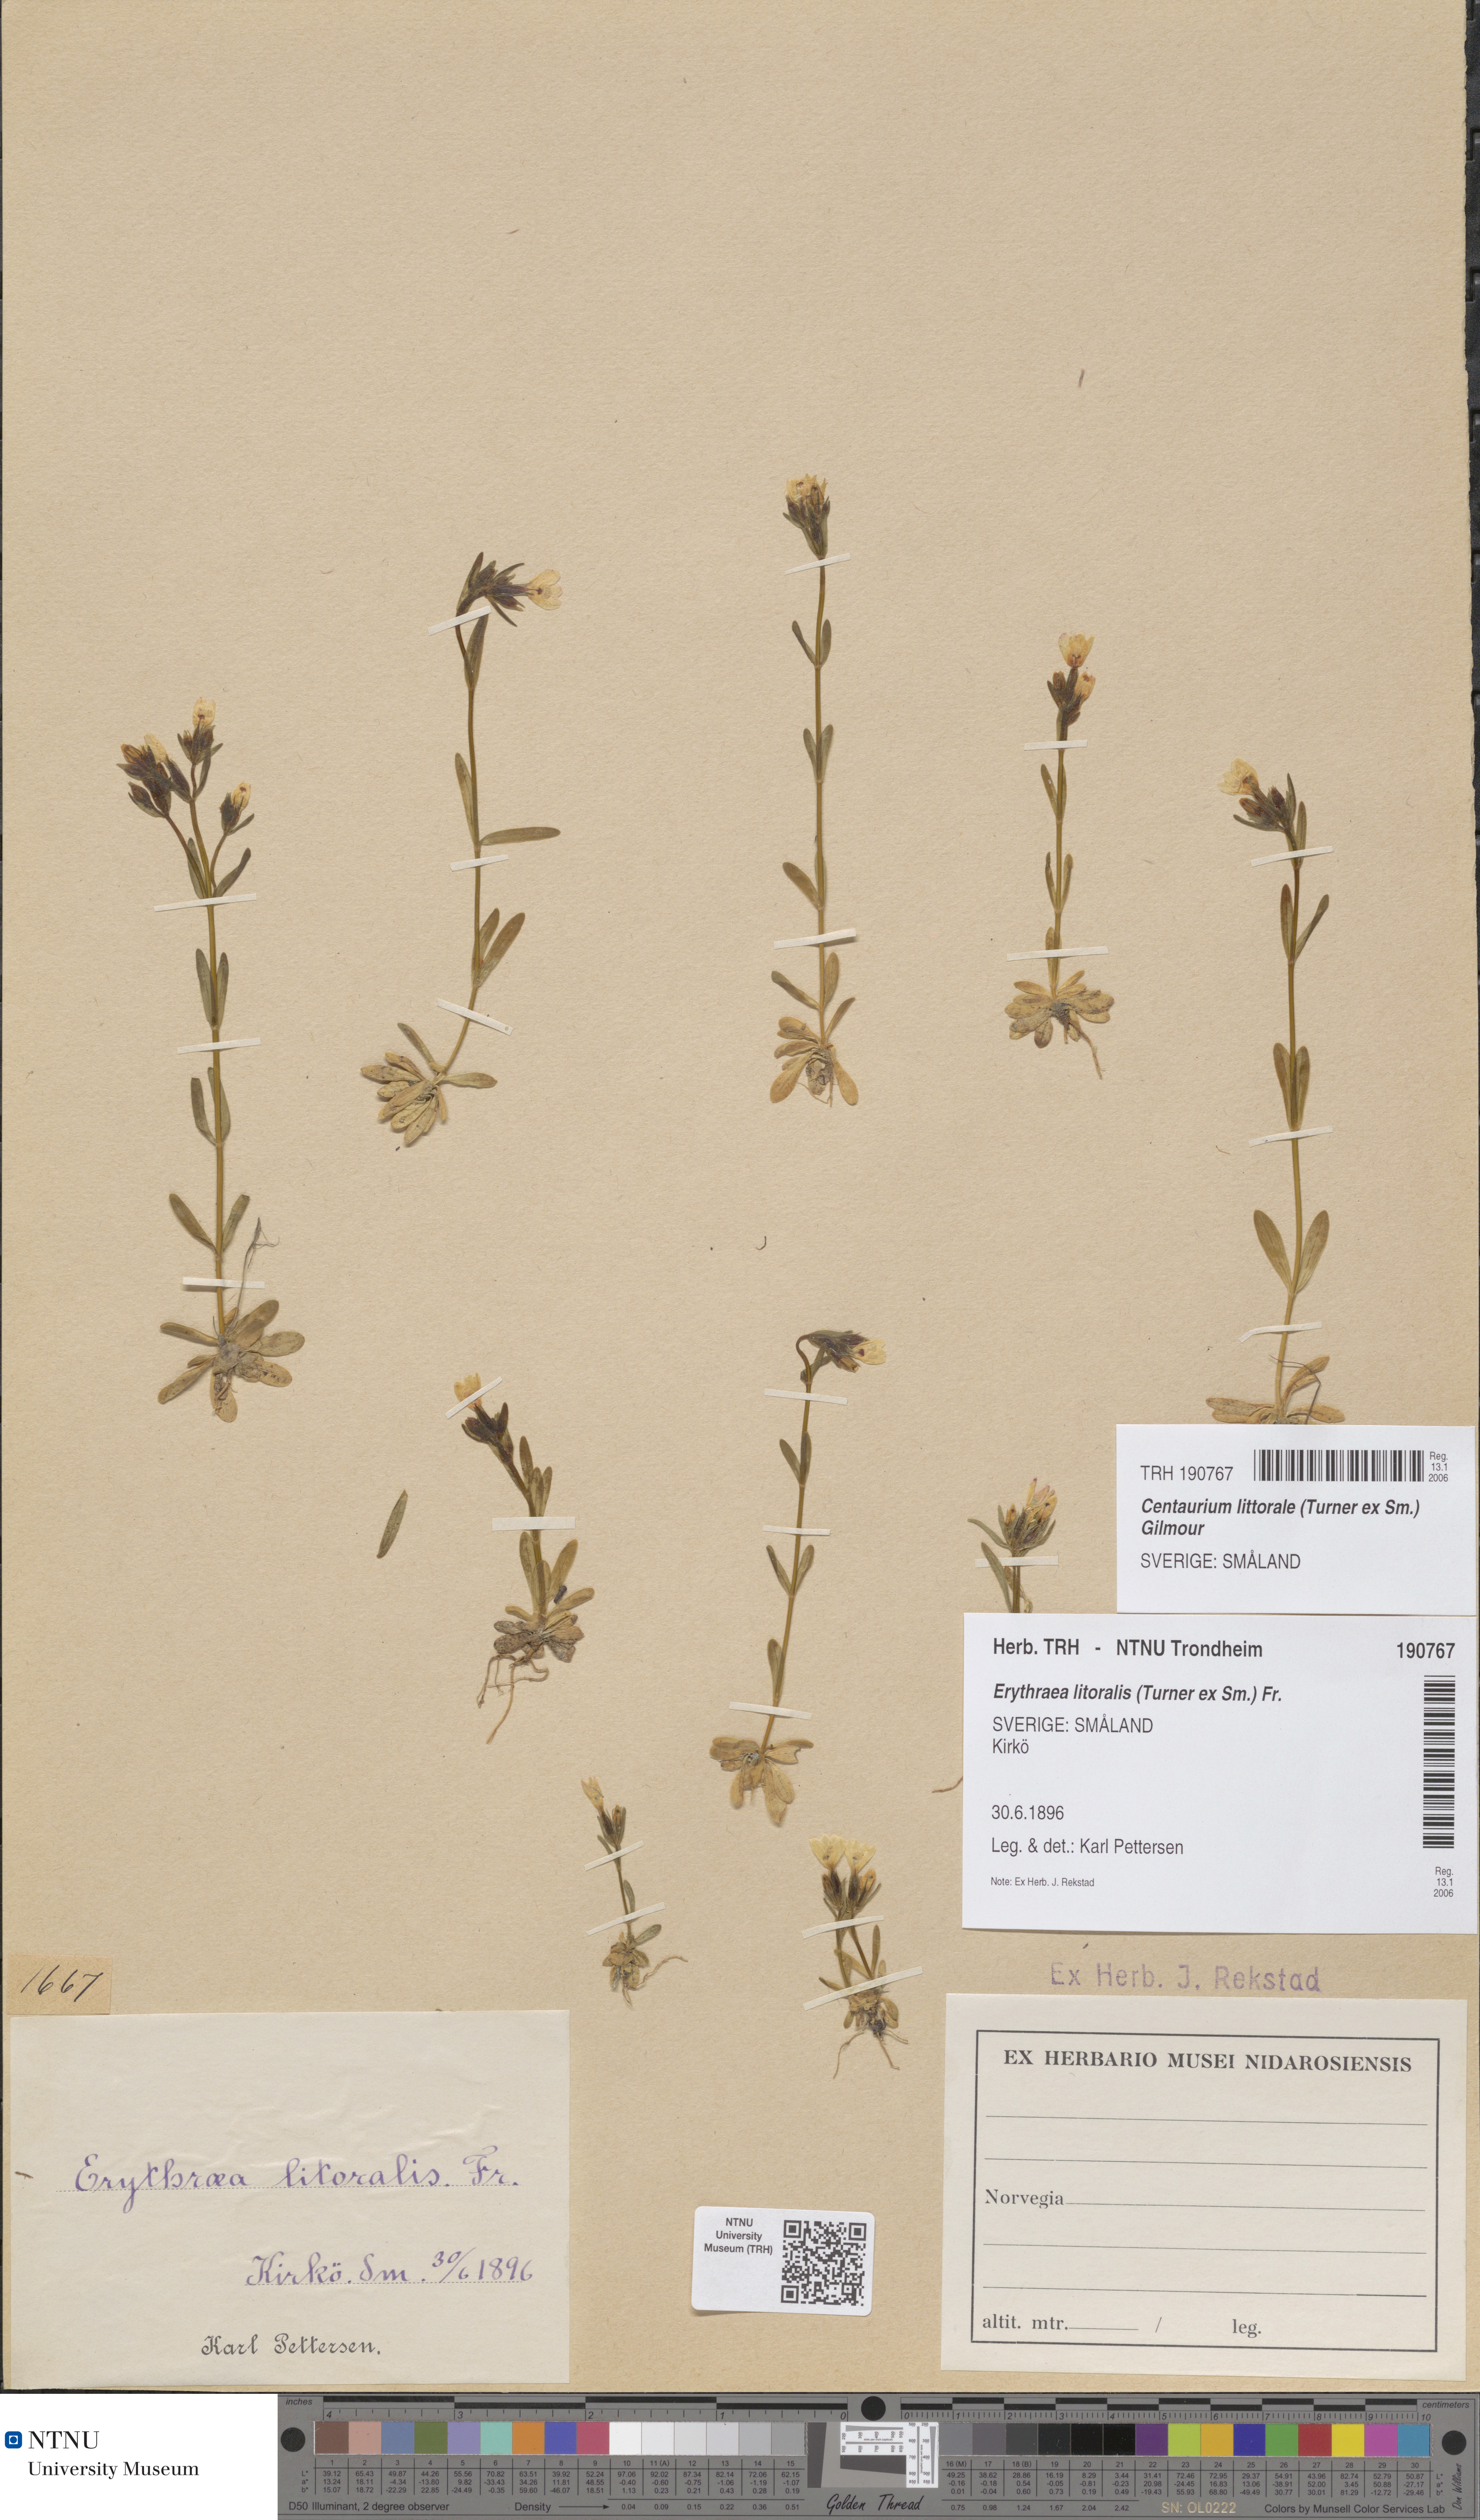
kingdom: Plantae
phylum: Tracheophyta
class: Magnoliopsida
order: Gentianales
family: Gentianaceae
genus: Centaurium
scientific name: Centaurium littorale
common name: Seaside centaury
